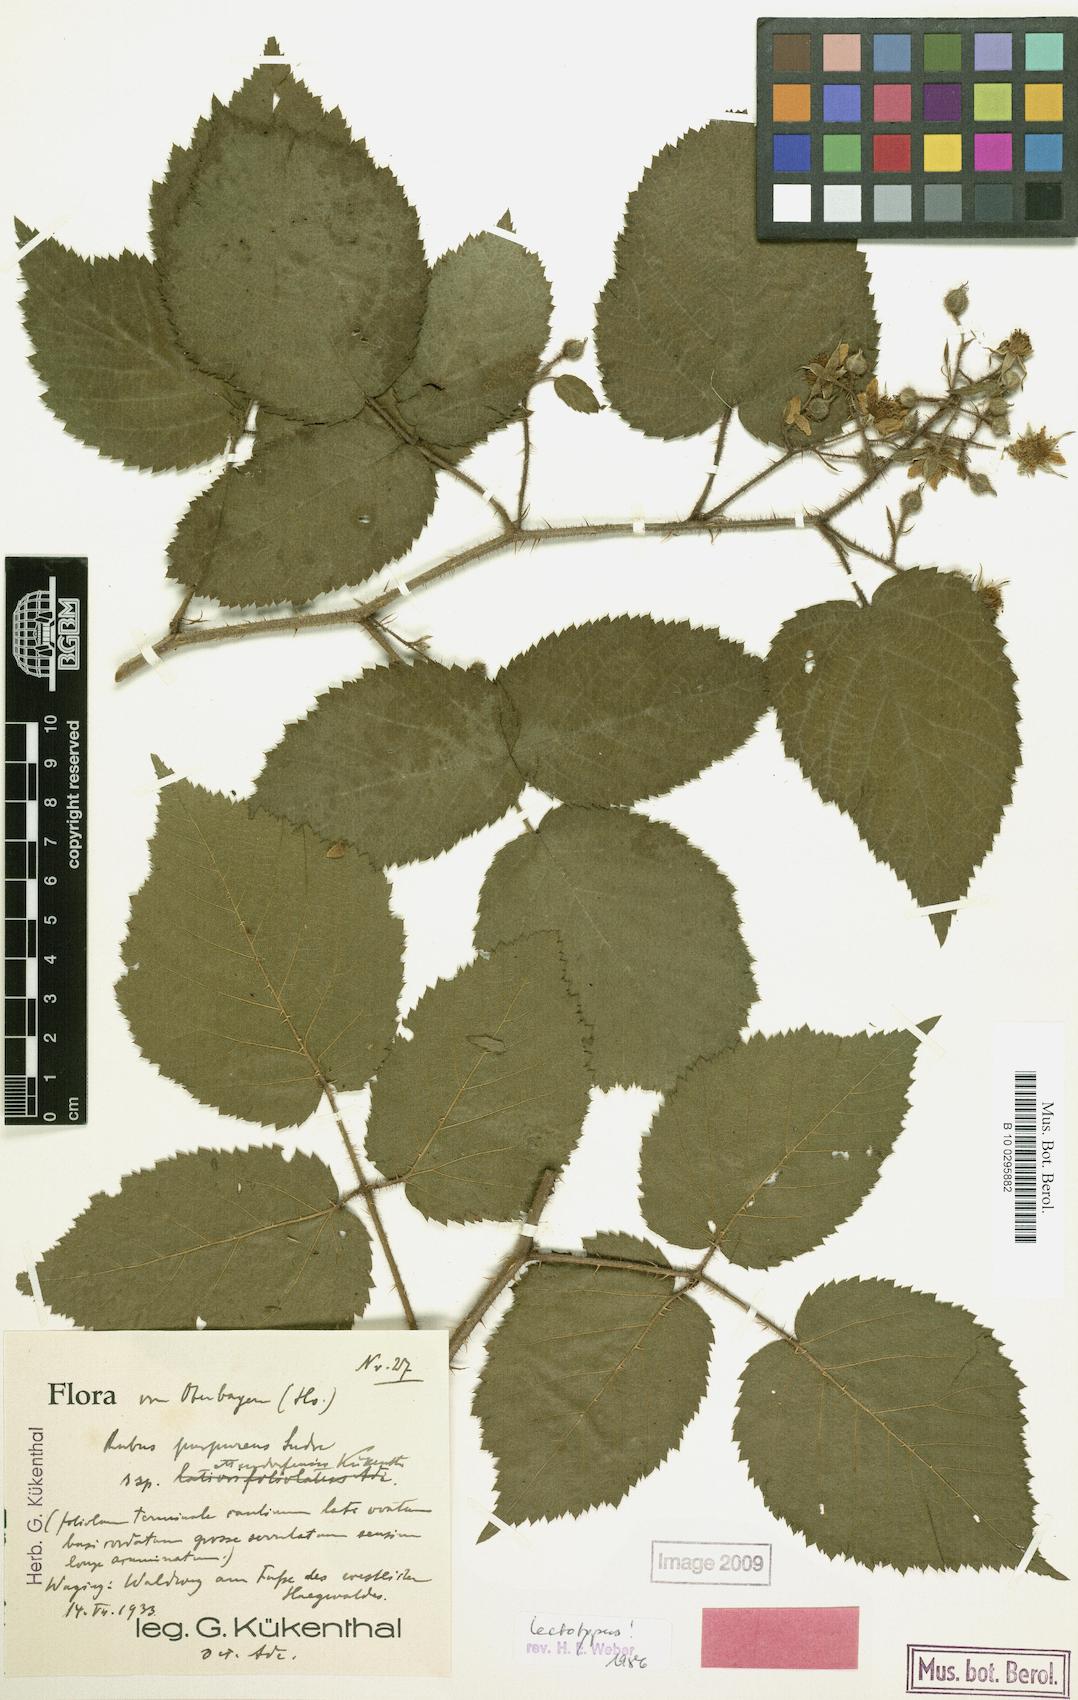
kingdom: Plantae
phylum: Tracheophyta
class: Magnoliopsida
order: Rosales
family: Rosaceae
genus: Rubus
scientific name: Rubus amoenus
